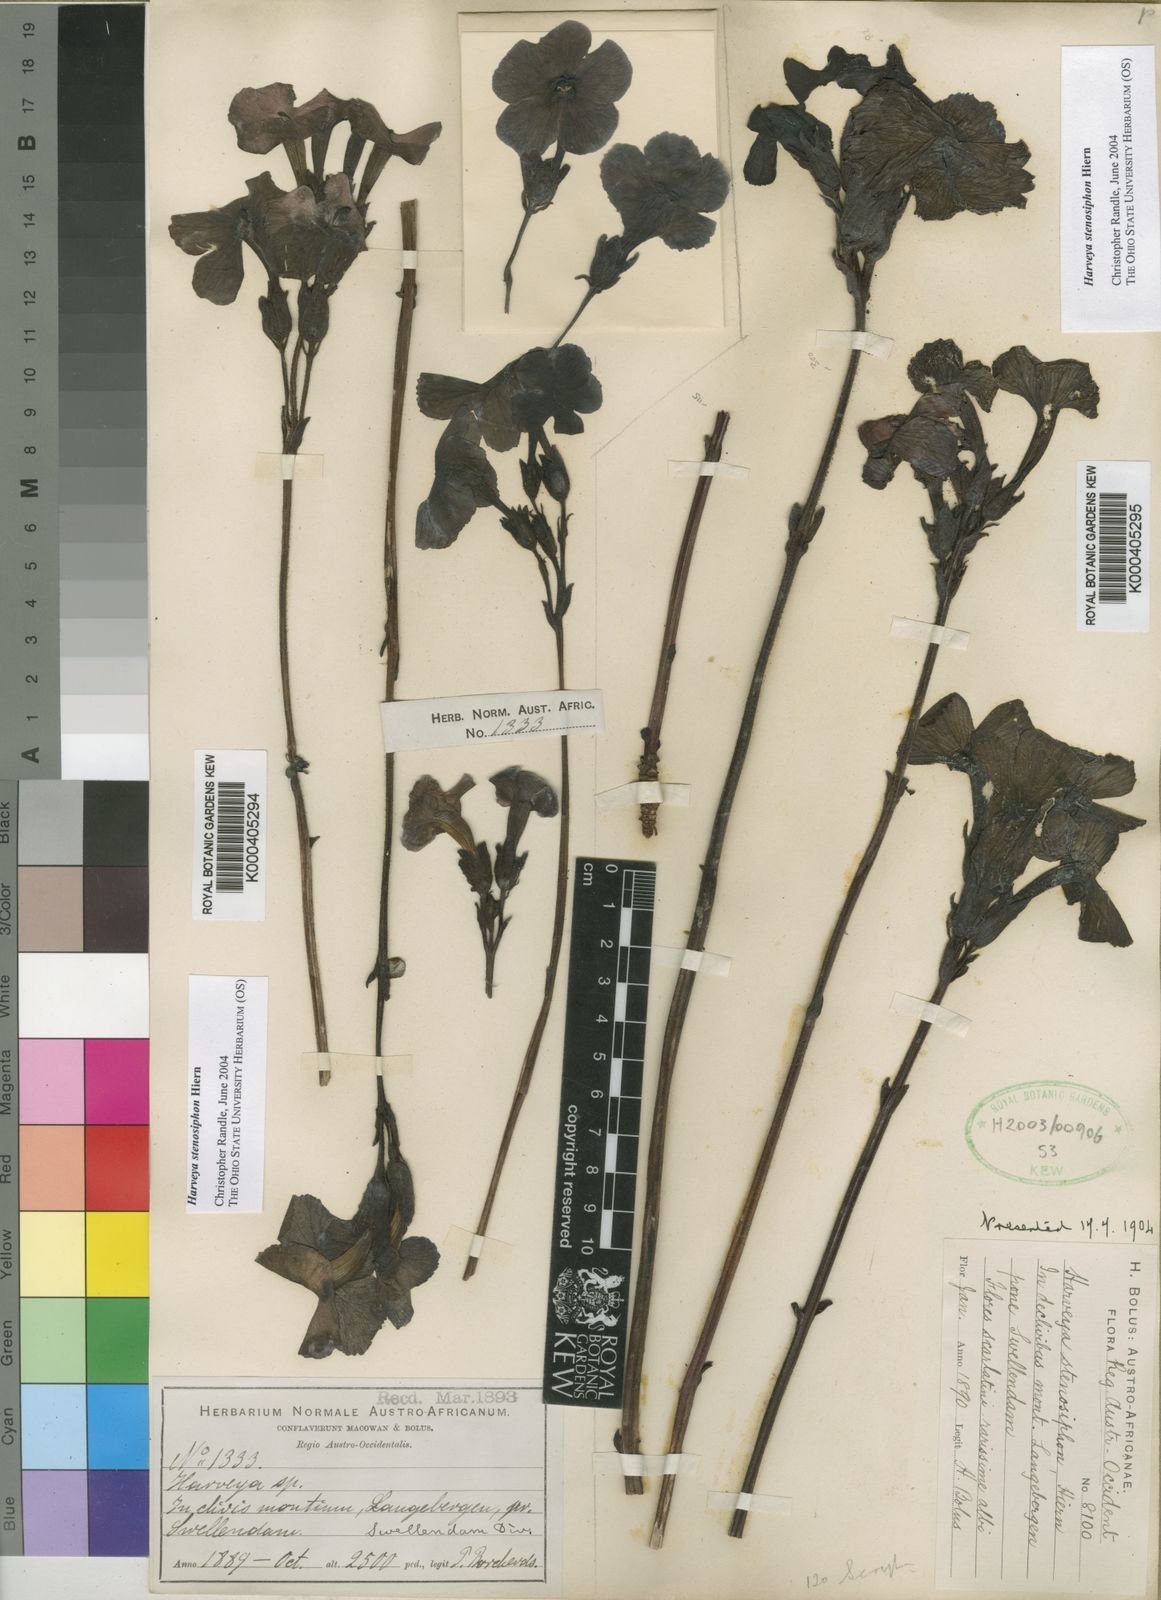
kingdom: Plantae
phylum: Tracheophyta
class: Magnoliopsida
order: Lamiales
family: Orobanchaceae
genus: Harveya
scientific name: Harveya stenosiphon
